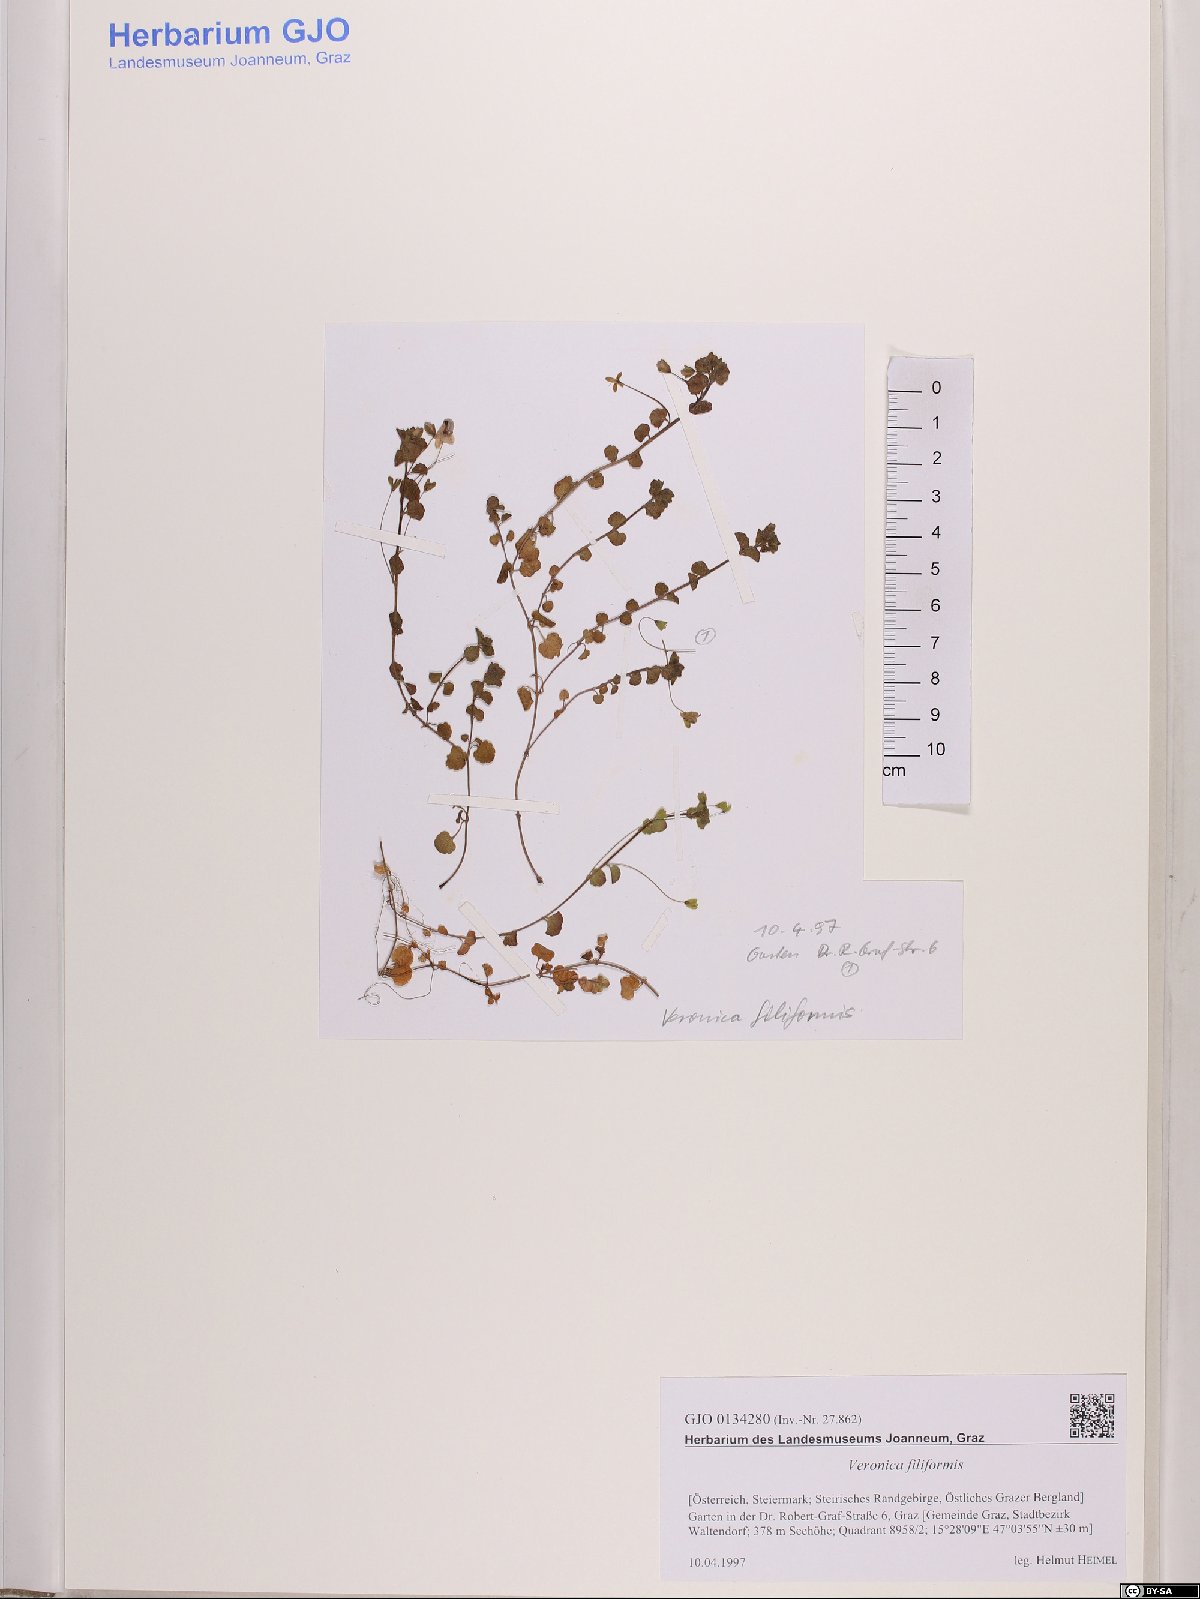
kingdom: Plantae
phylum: Tracheophyta
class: Magnoliopsida
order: Lamiales
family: Plantaginaceae
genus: Veronica
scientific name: Veronica filiformis
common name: Slender speedwell
